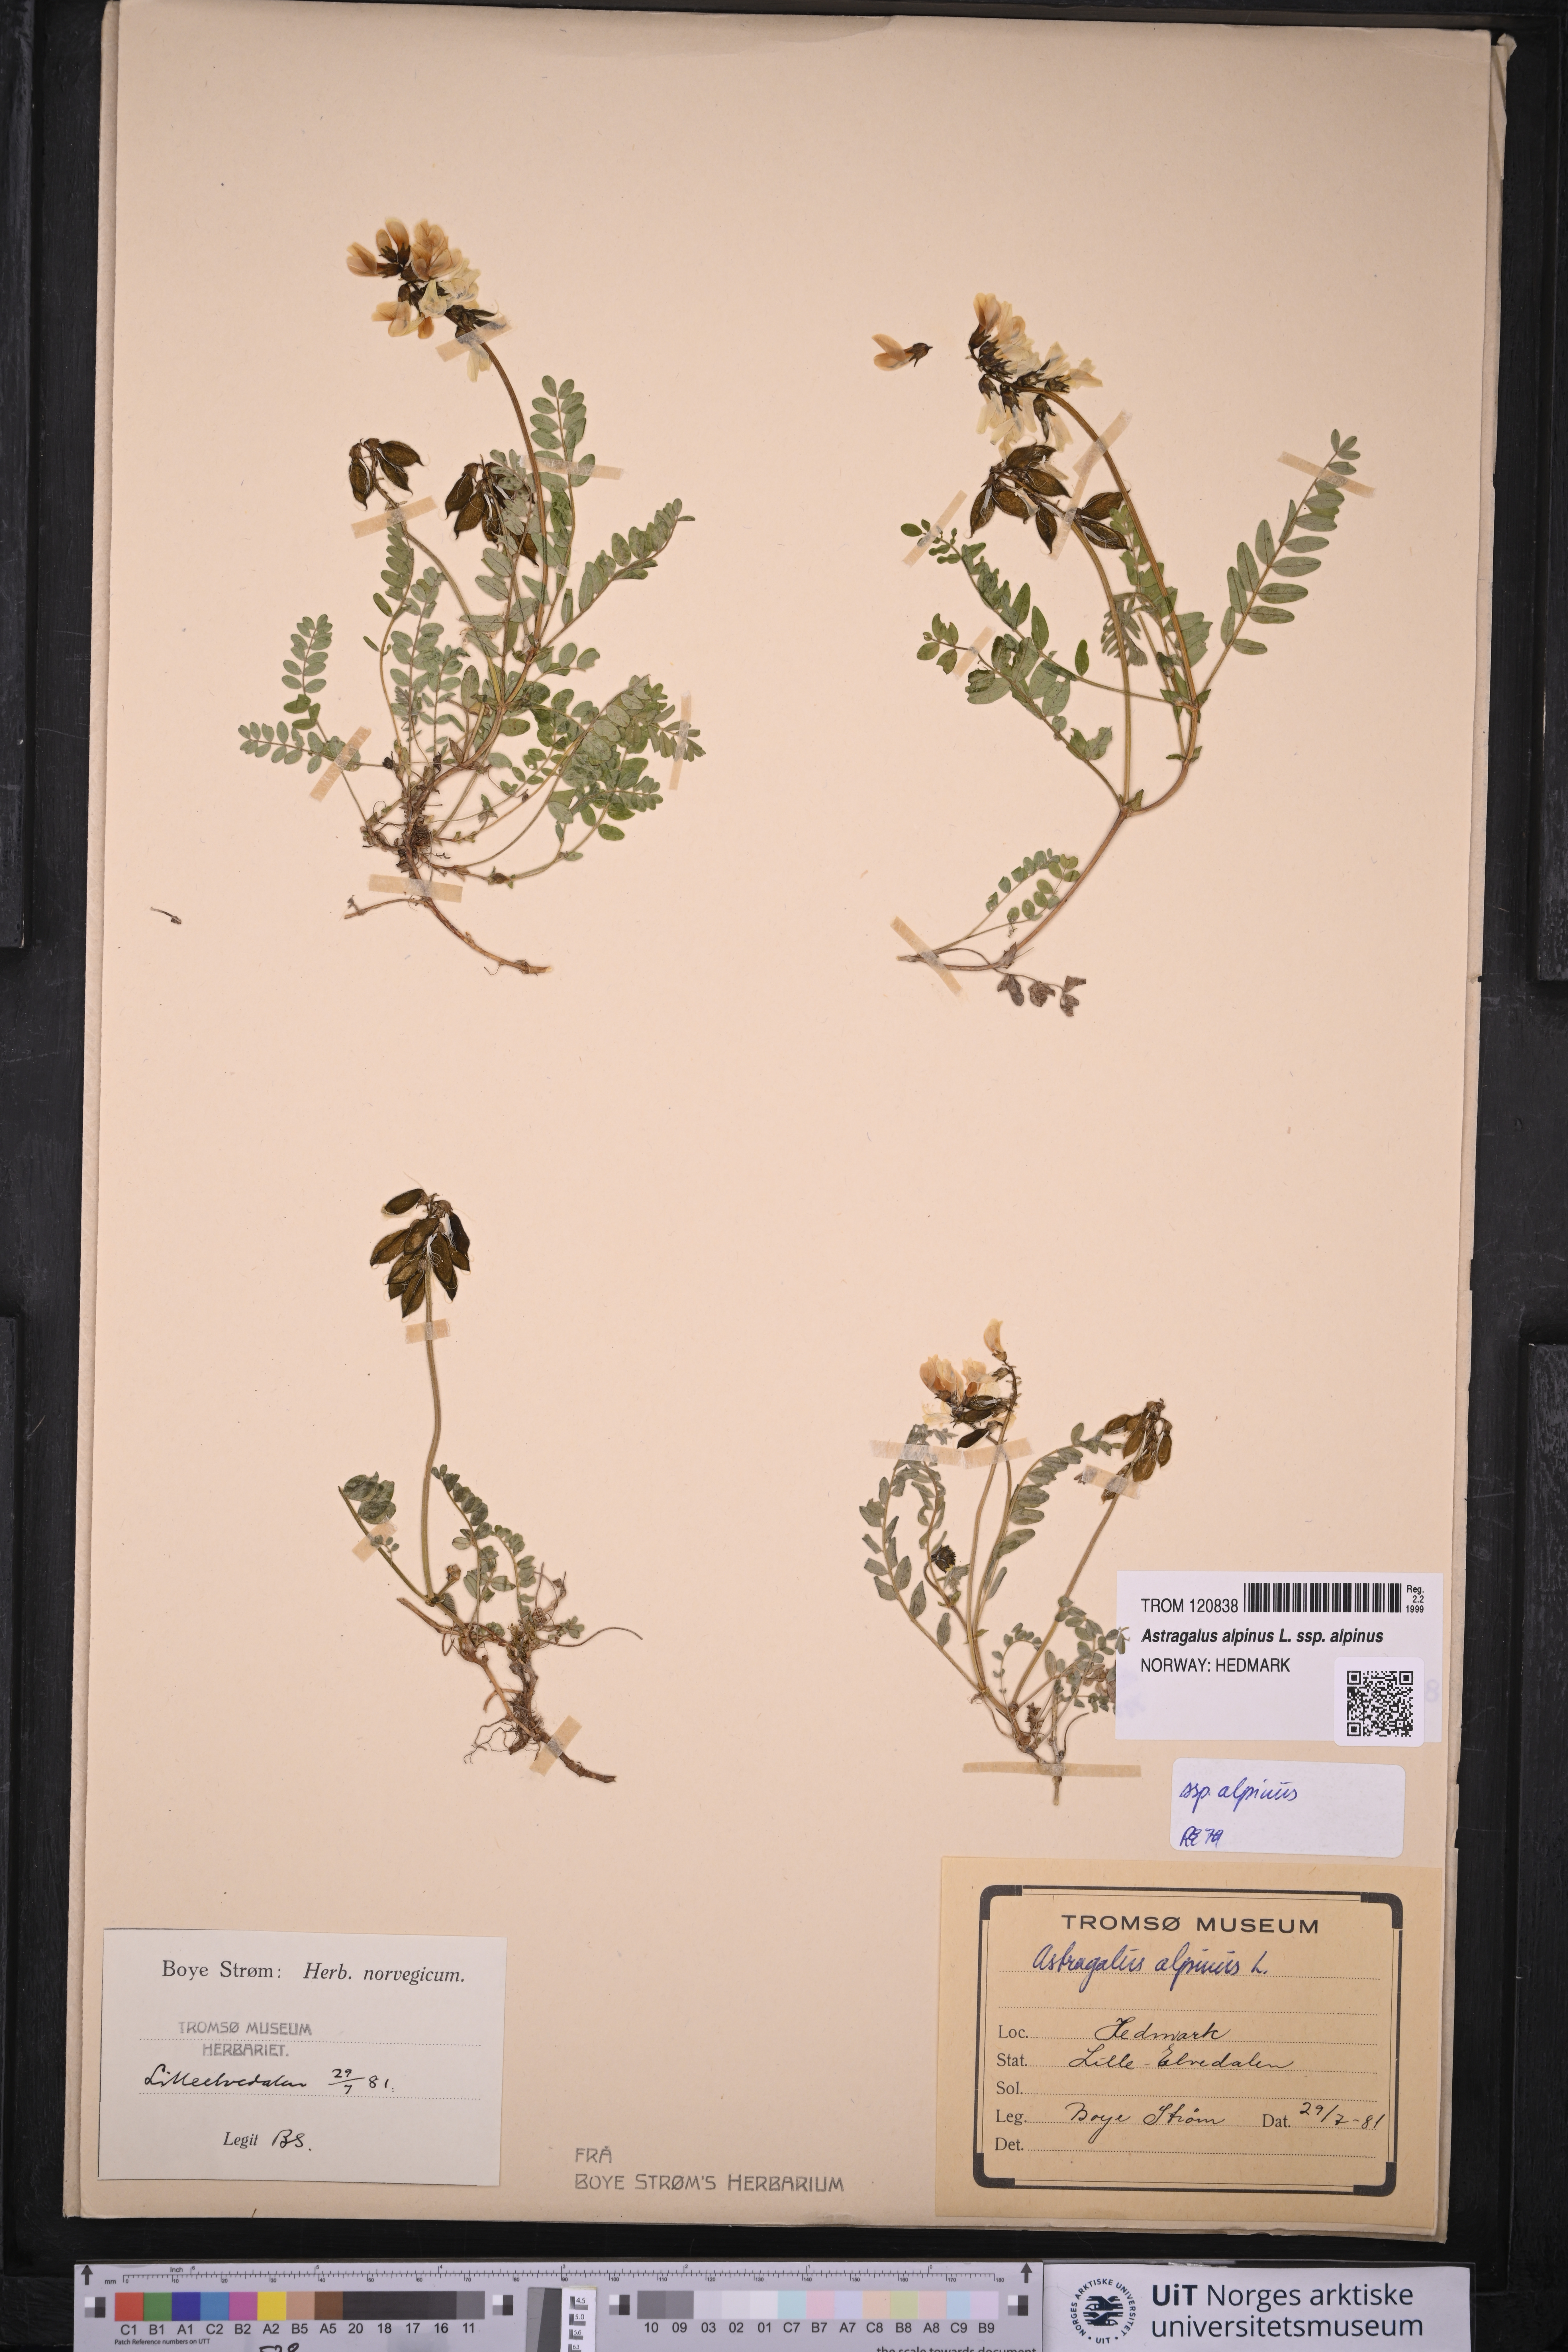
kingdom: Plantae
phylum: Tracheophyta
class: Magnoliopsida
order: Fabales
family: Fabaceae
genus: Astragalus
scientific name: Astragalus alpinus
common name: Alpine milk-vetch
